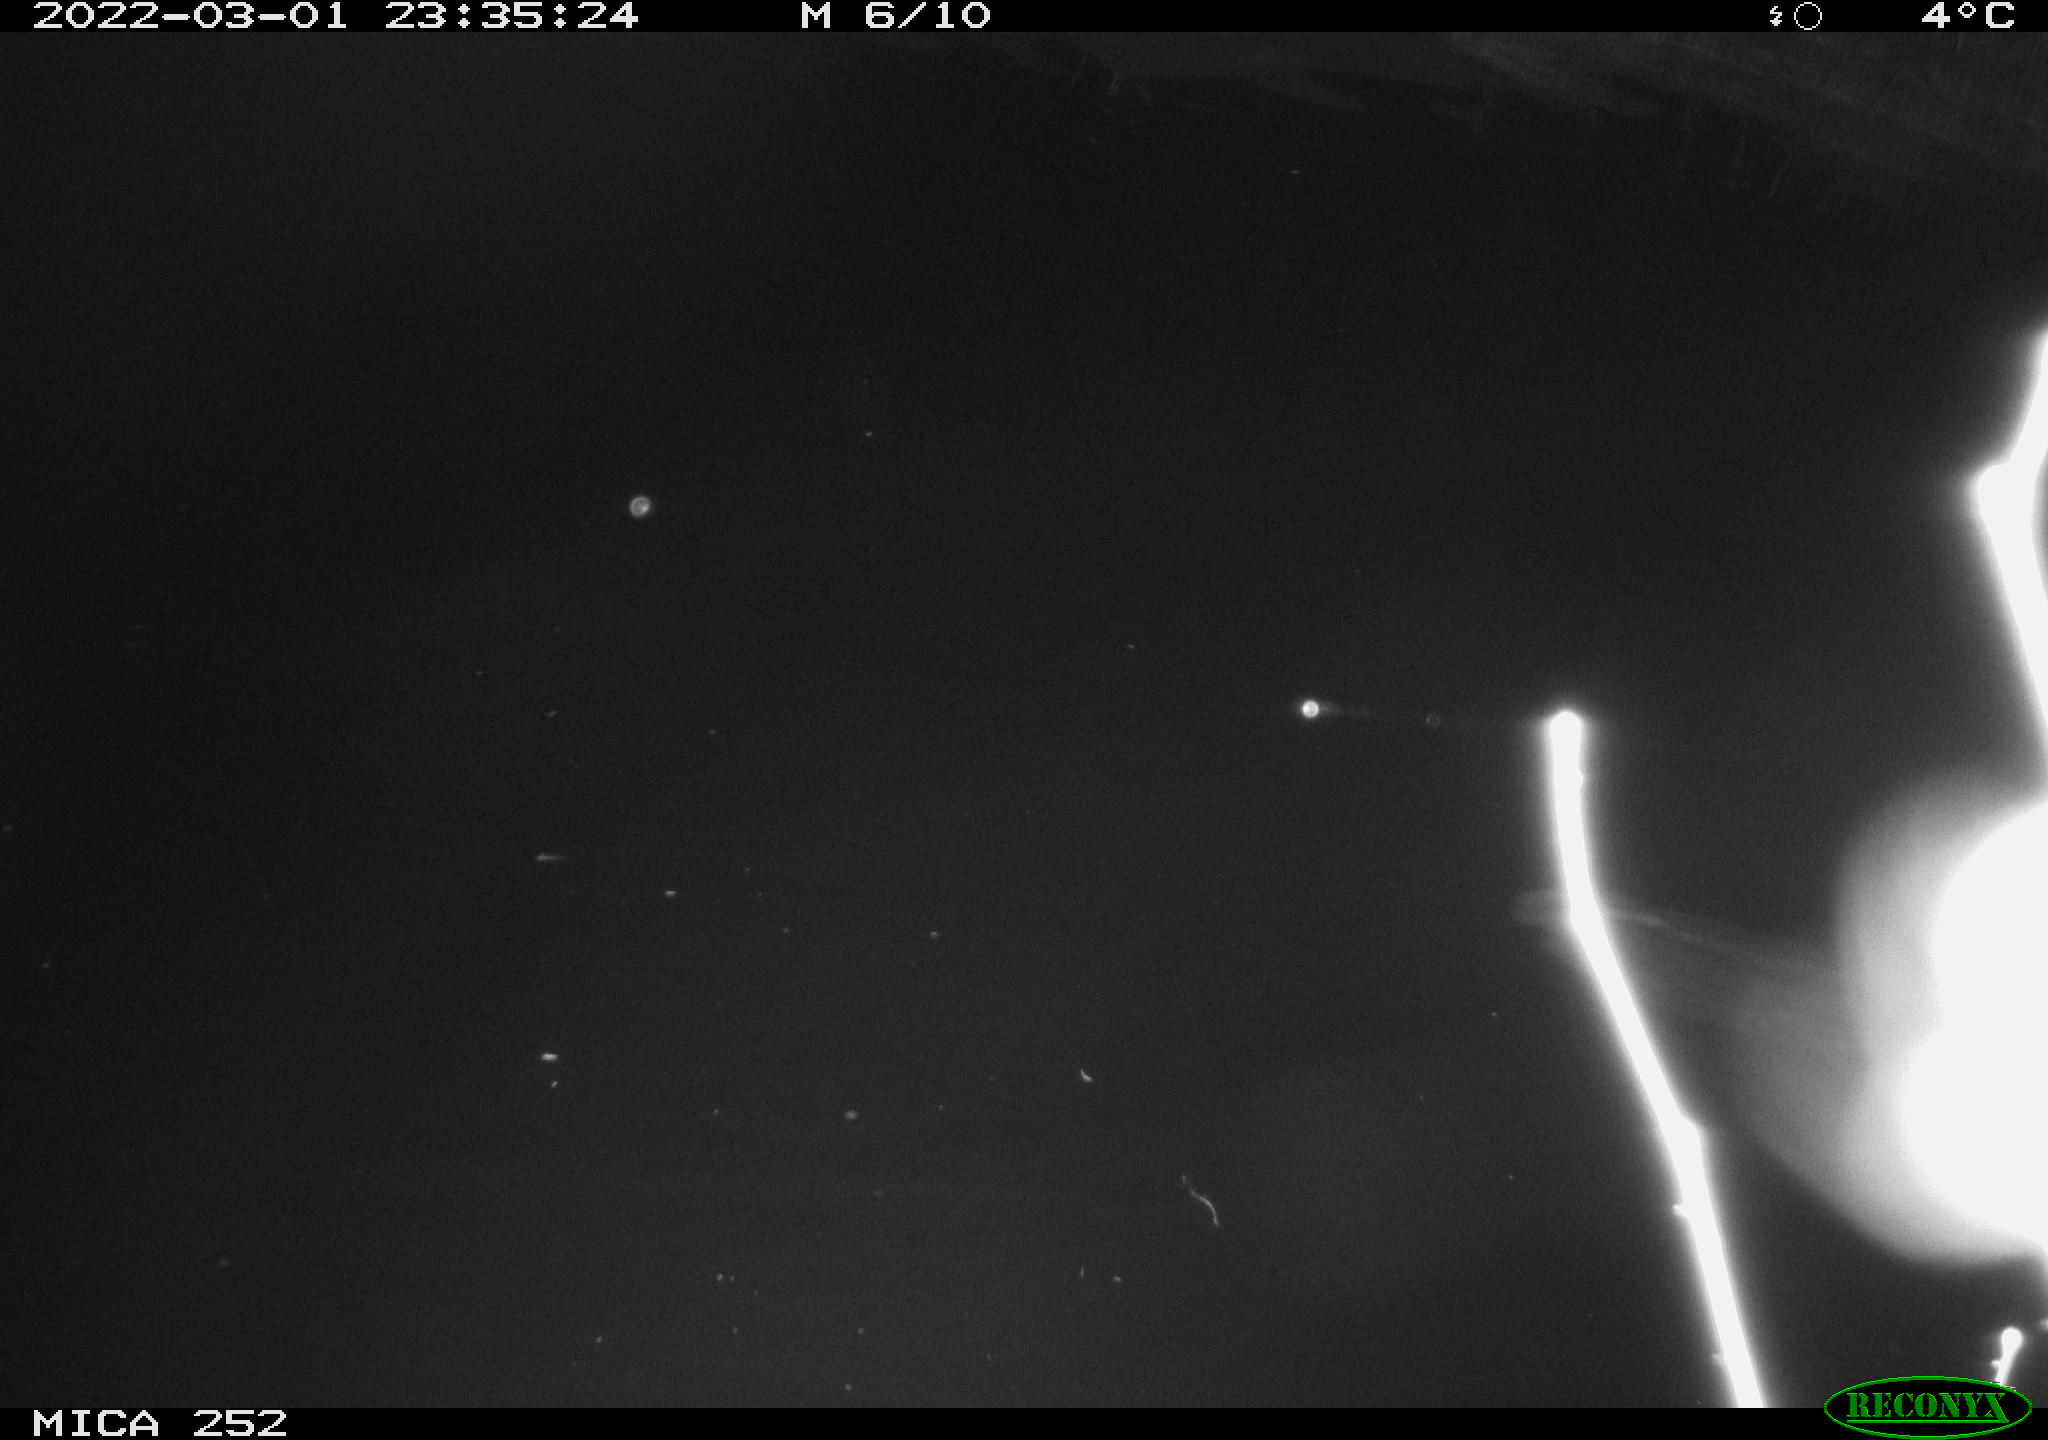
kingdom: Animalia
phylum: Chordata
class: Mammalia
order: Rodentia
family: Castoridae
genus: Castor
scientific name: Castor fiber
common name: Eurasian beaver
